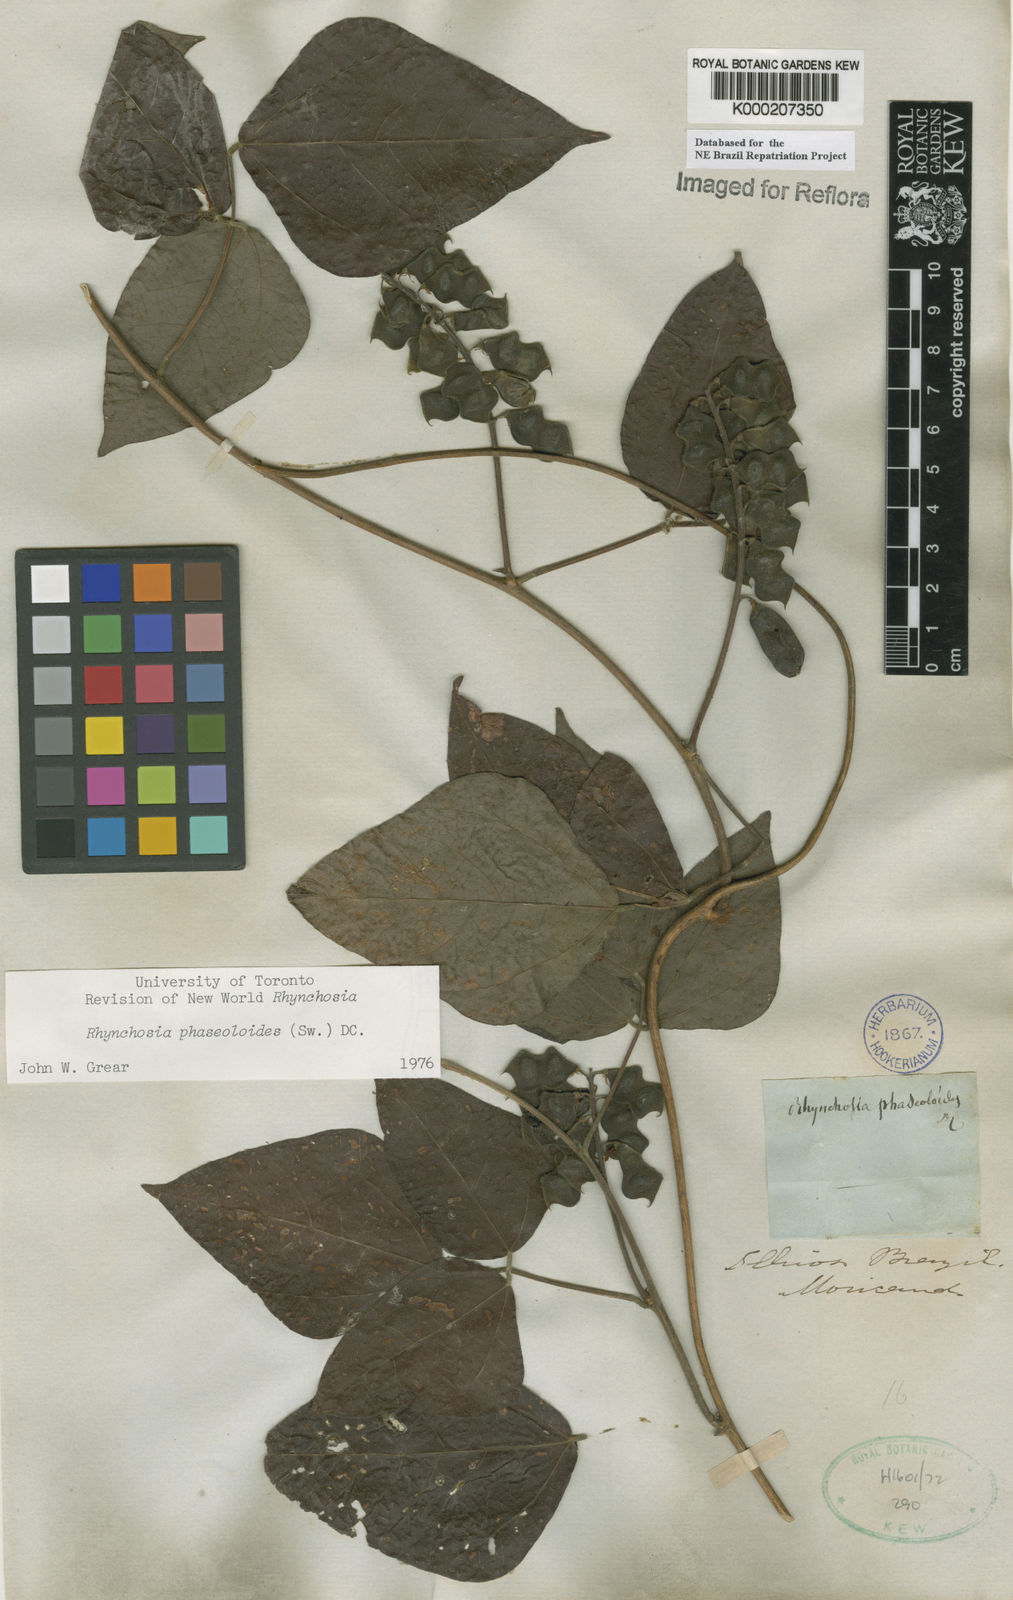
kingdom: Plantae
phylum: Tracheophyta
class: Magnoliopsida
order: Fabales
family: Fabaceae
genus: Rhynchosia
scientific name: Rhynchosia phaseoloides
